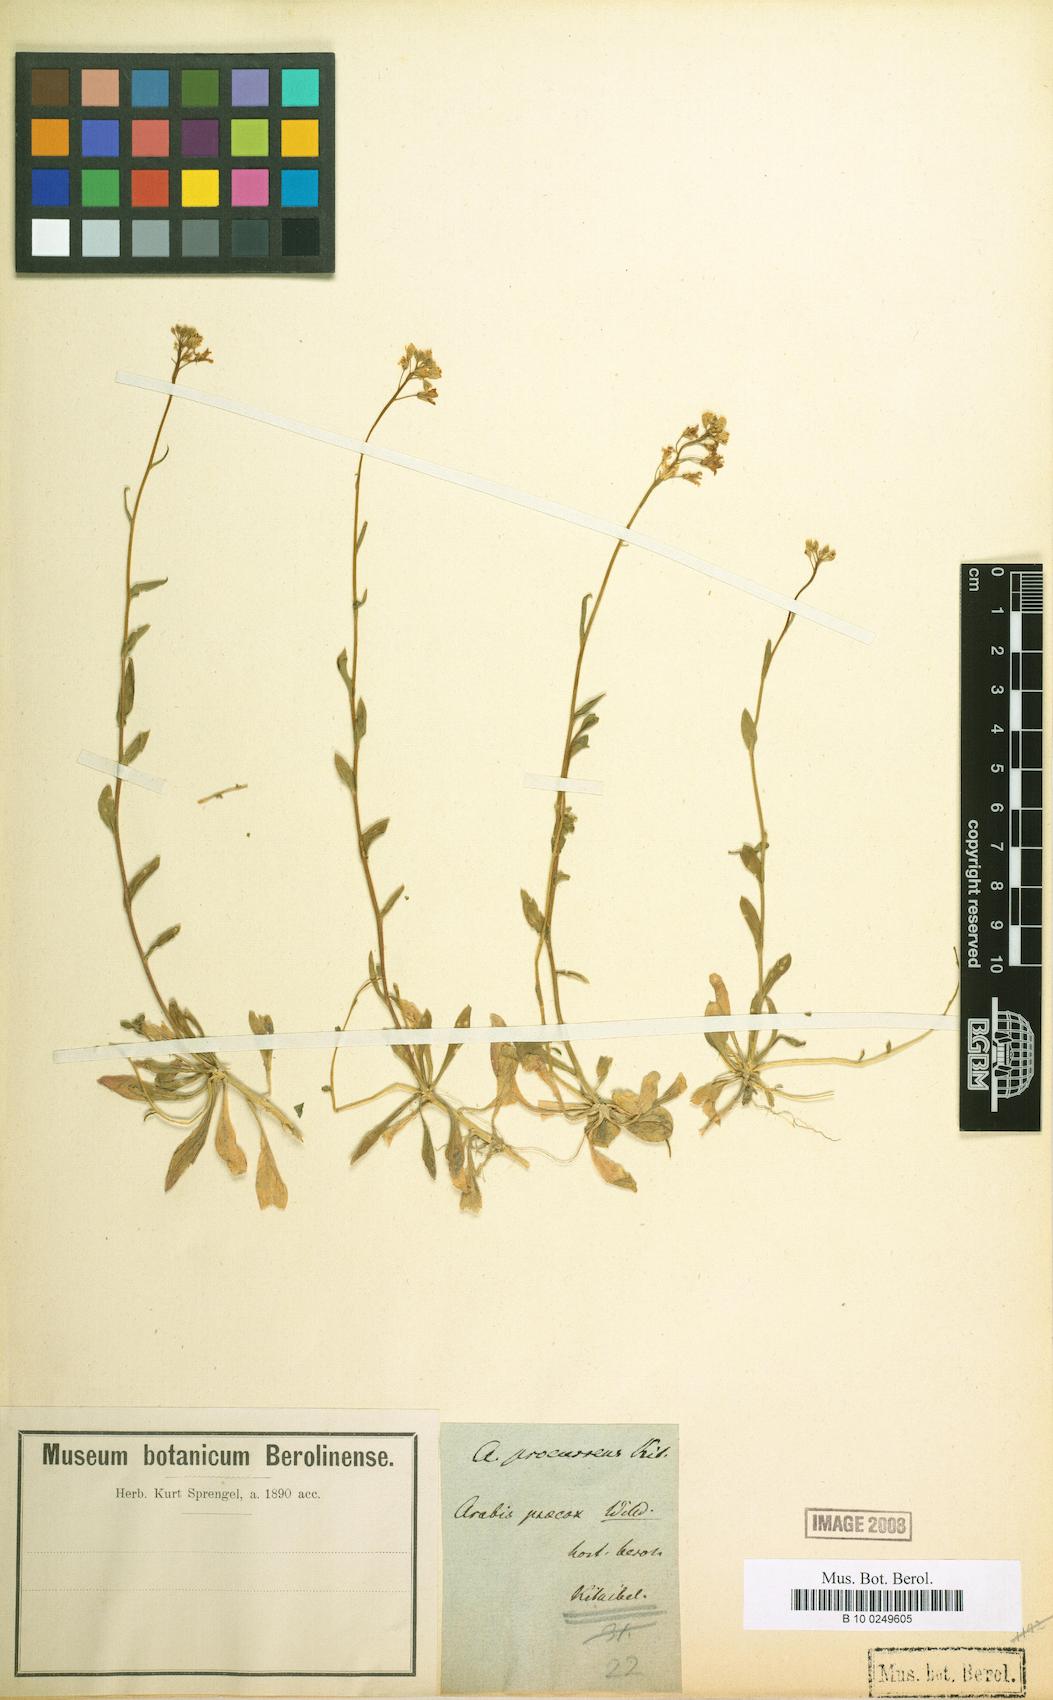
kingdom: Plantae
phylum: Tracheophyta
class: Magnoliopsida
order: Brassicales
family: Brassicaceae
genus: Arabis
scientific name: Arabis procurrens
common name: Running rockcress
